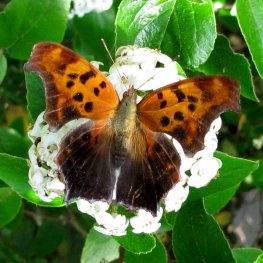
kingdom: Animalia
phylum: Arthropoda
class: Insecta
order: Lepidoptera
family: Nymphalidae
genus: Polygonia
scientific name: Polygonia interrogationis
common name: Question Mark
